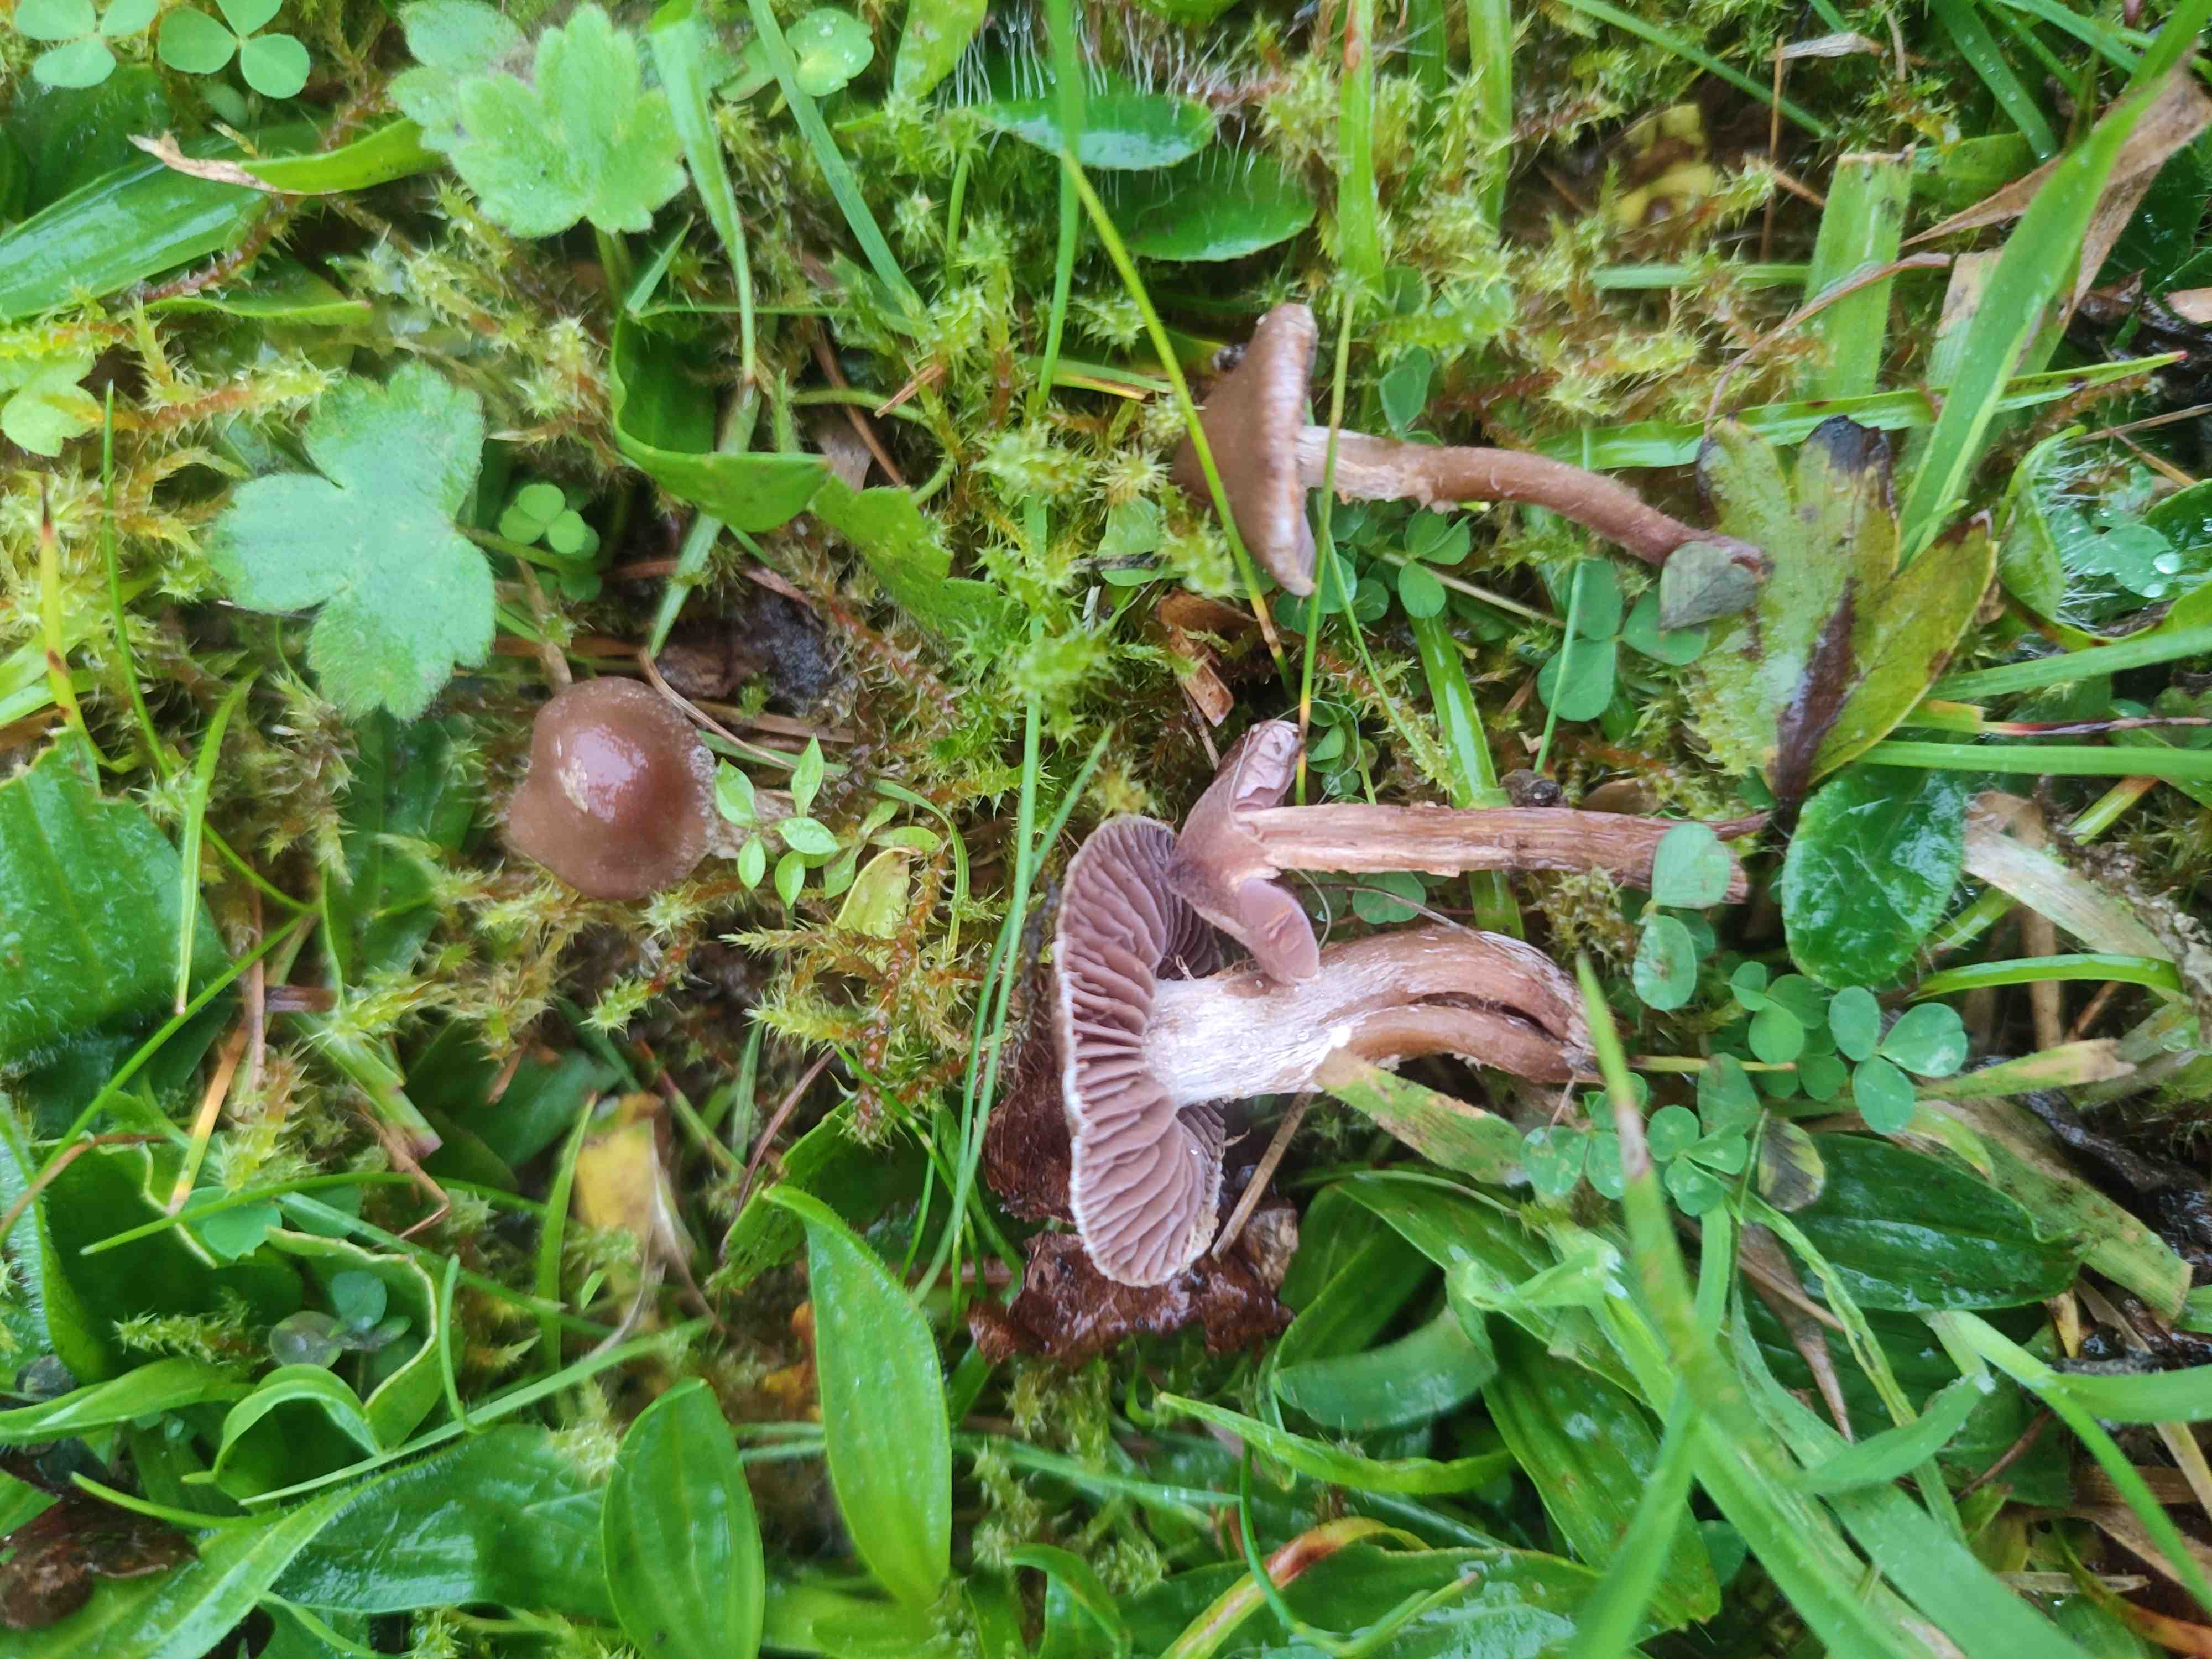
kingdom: Fungi
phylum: Basidiomycota
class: Agaricomycetes
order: Agaricales
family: Cortinariaceae
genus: Cortinarius
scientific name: Cortinarius
